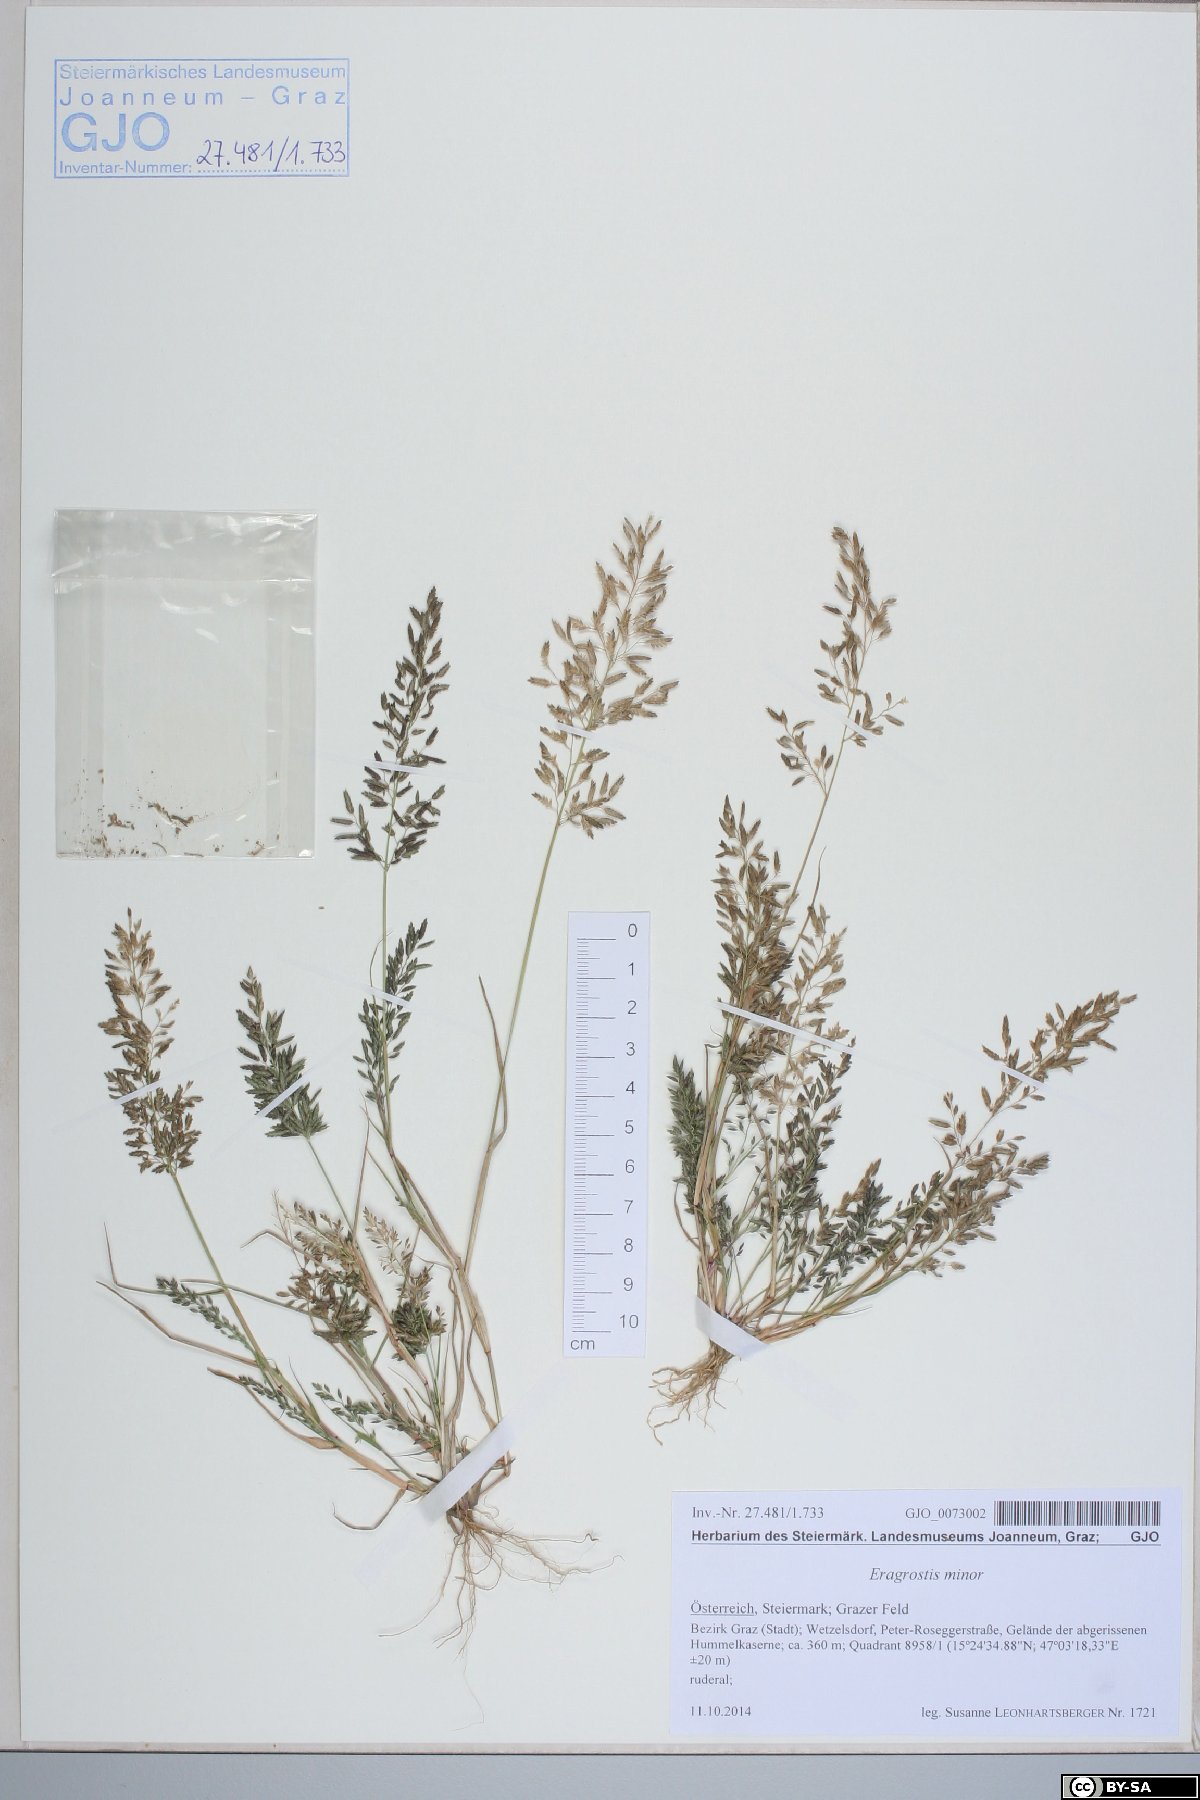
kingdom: Plantae
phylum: Tracheophyta
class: Liliopsida
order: Poales
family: Poaceae
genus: Eragrostis
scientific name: Eragrostis minor
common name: Small love-grass
